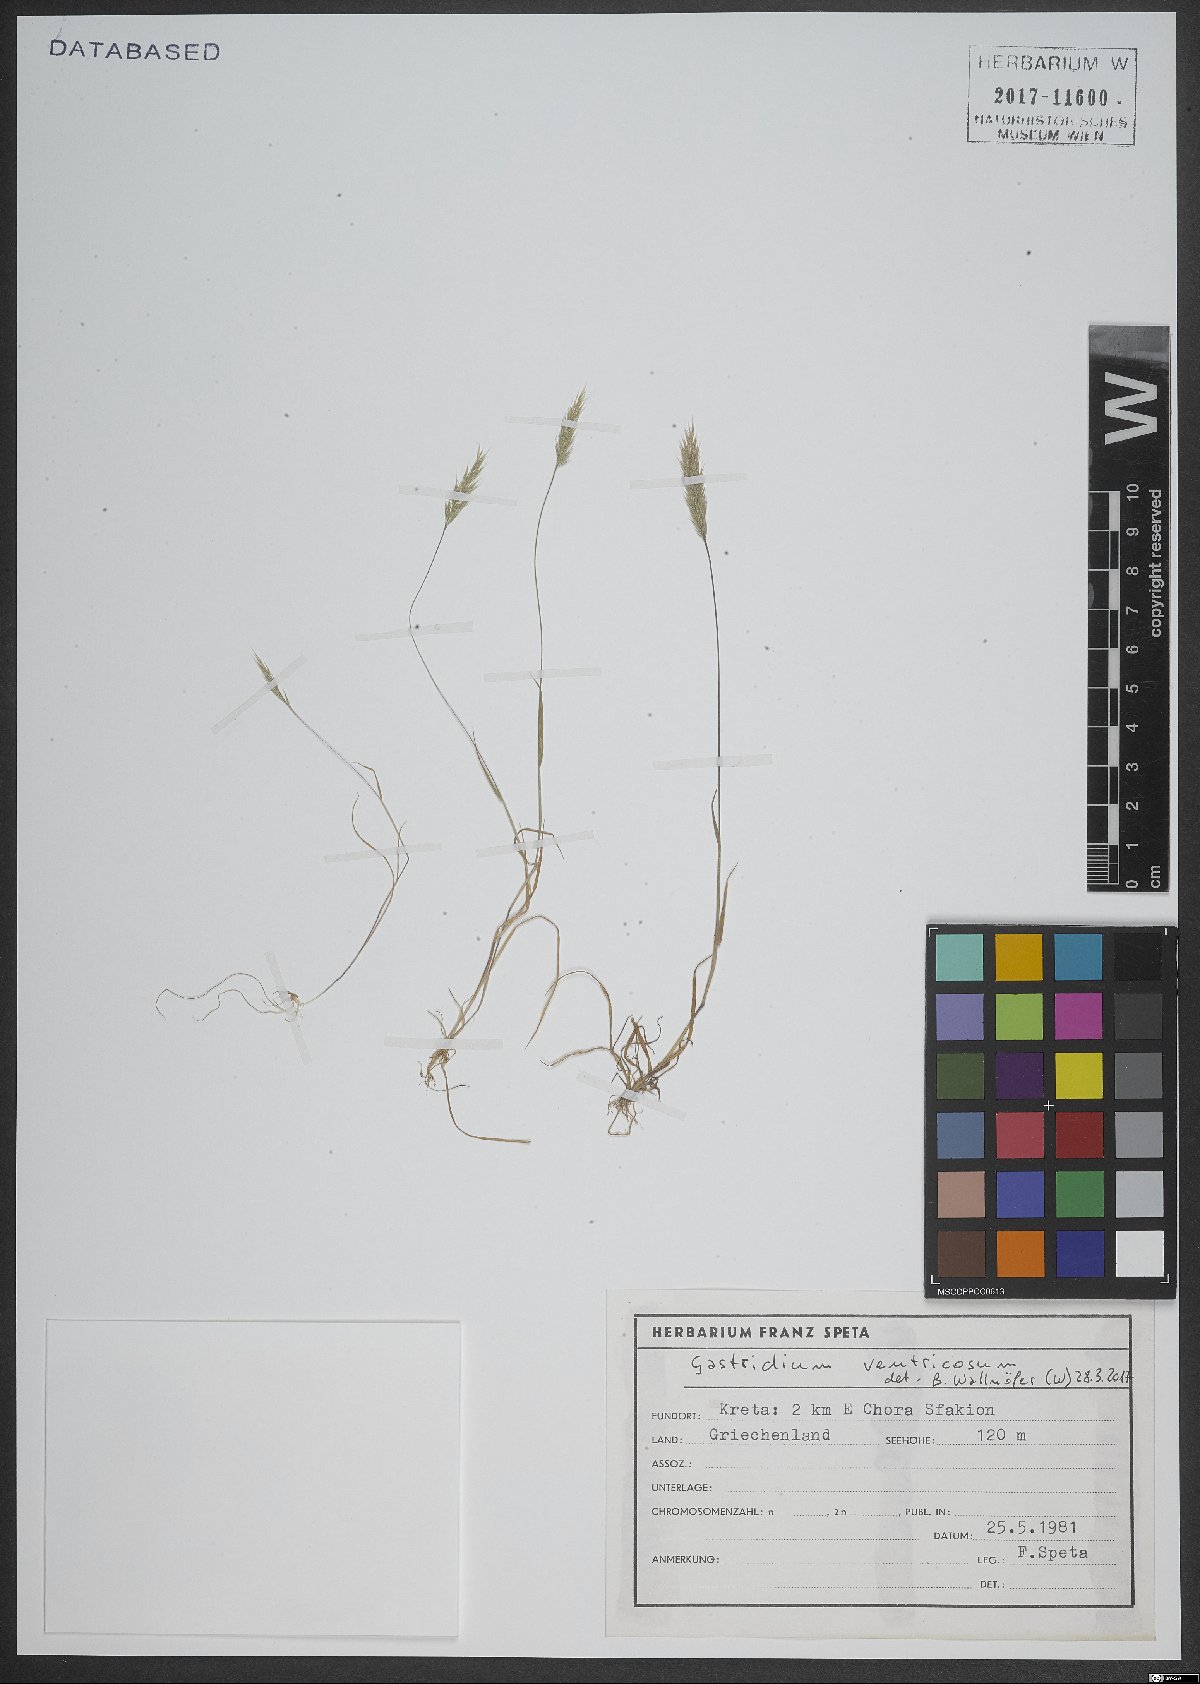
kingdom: Plantae
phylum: Tracheophyta
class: Liliopsida
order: Poales
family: Poaceae
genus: Gastridium
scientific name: Gastridium ventricosum
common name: Nit-grass
